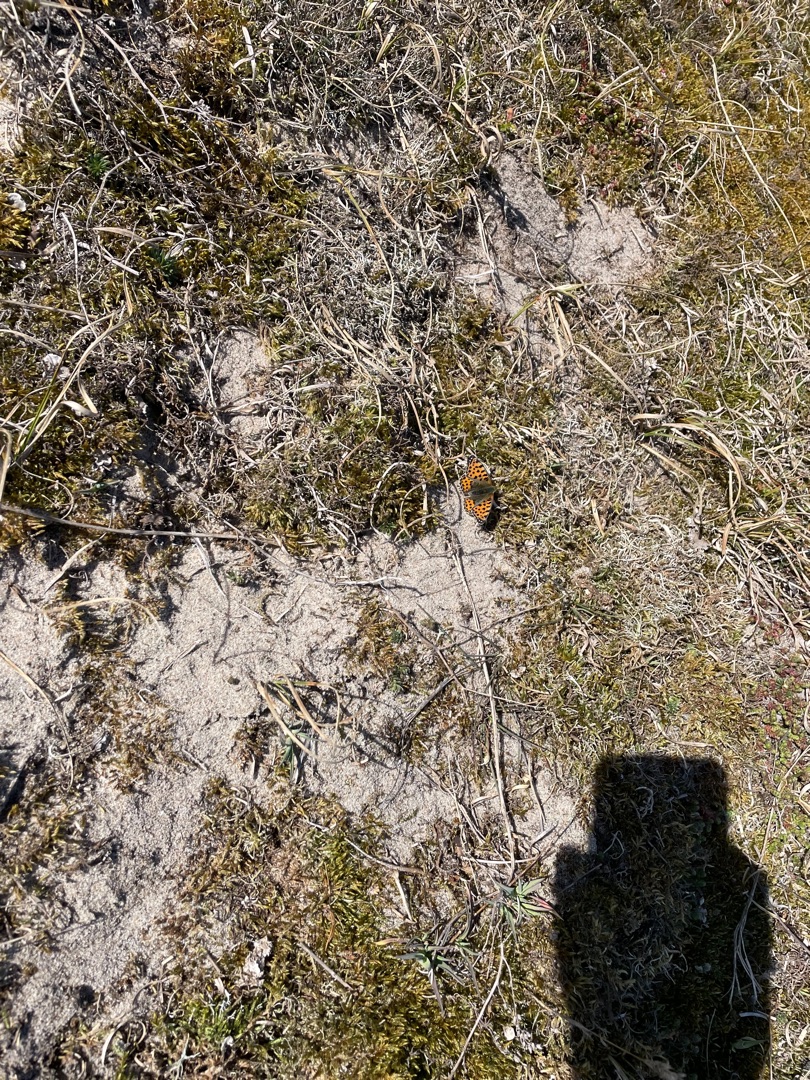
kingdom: Animalia
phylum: Arthropoda
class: Insecta
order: Lepidoptera
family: Nymphalidae
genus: Issoria
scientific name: Issoria lathonia
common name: Storplettet perlemorsommerfugl
